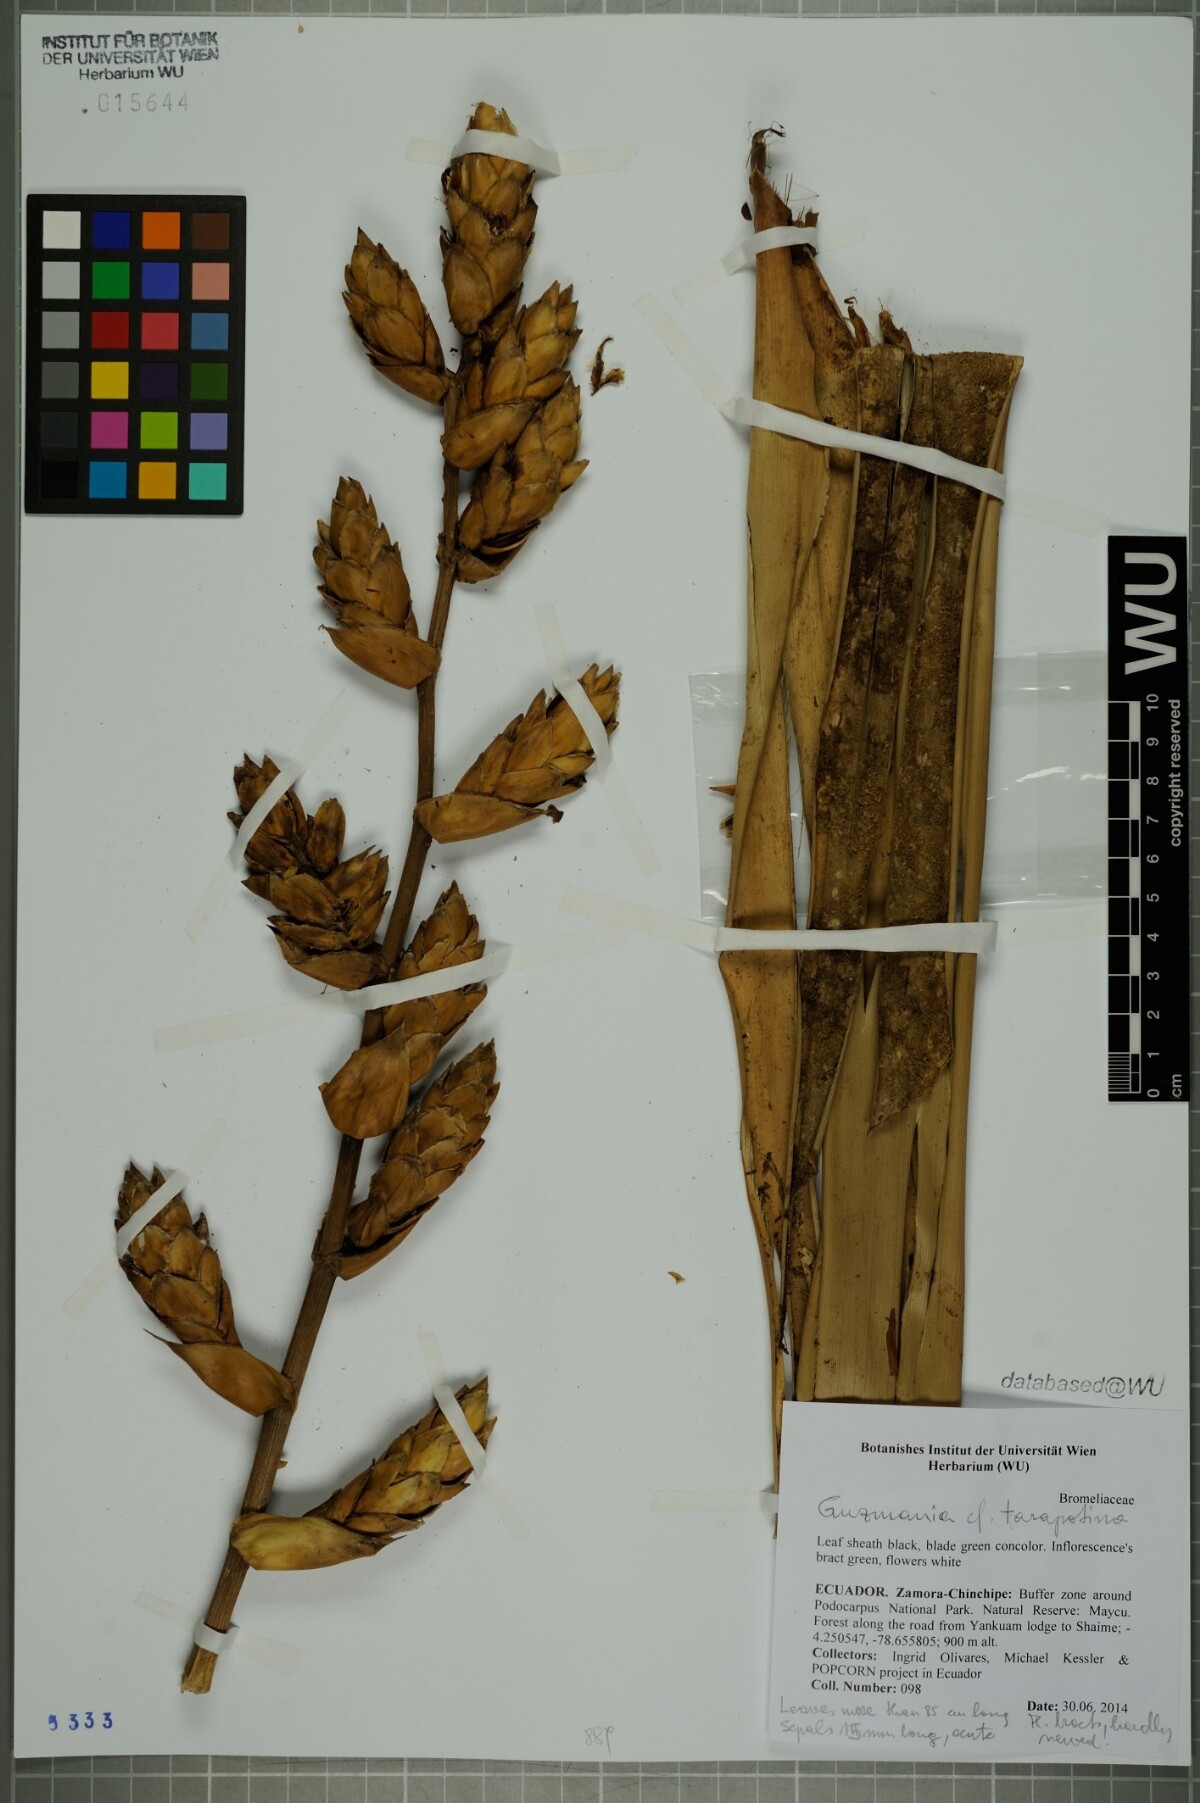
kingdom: Plantae
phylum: Tracheophyta
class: Liliopsida
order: Poales
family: Bromeliaceae
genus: Guzmania
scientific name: Guzmania tarapotina
